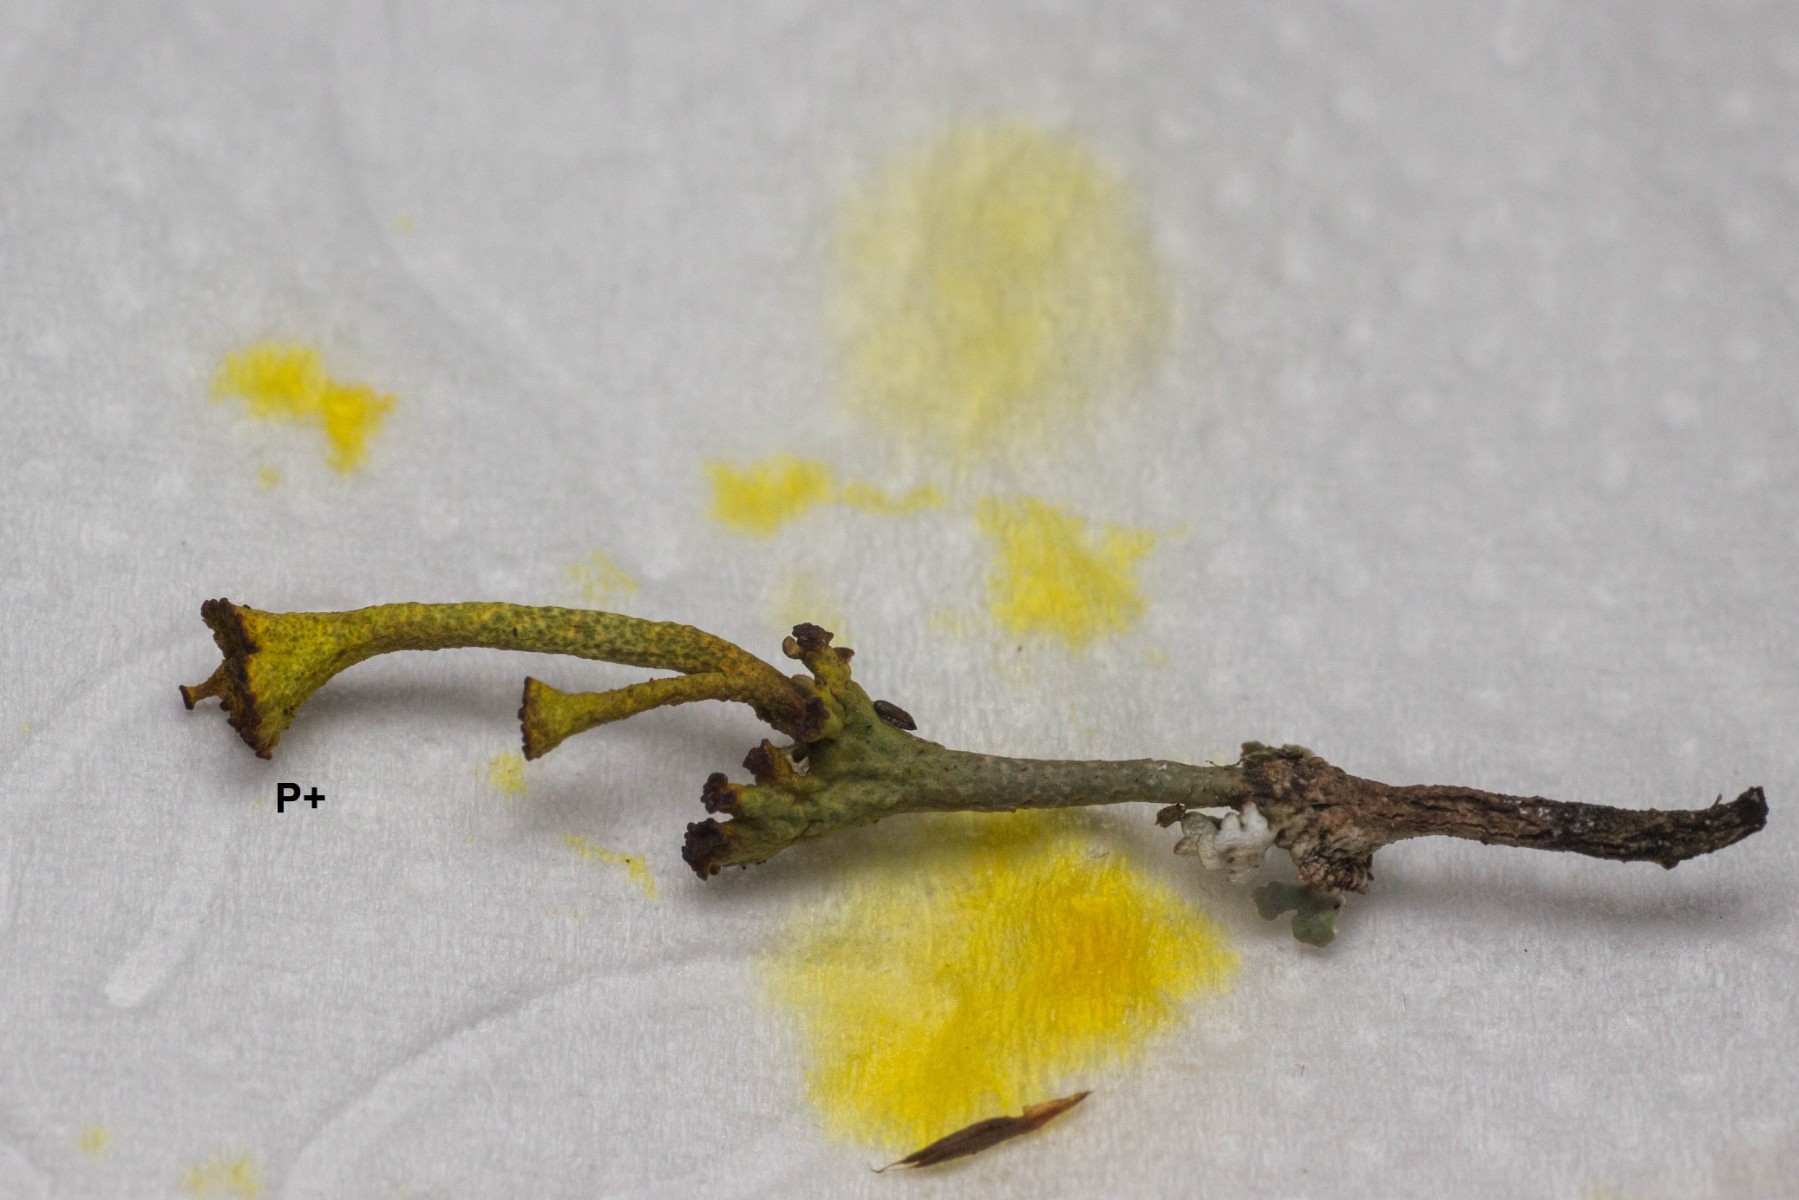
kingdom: Fungi
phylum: Ascomycota
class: Lecanoromycetes
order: Lecanorales
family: Cladoniaceae
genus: Cladonia
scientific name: Cladonia cervicornis
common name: tue-bægerlav
